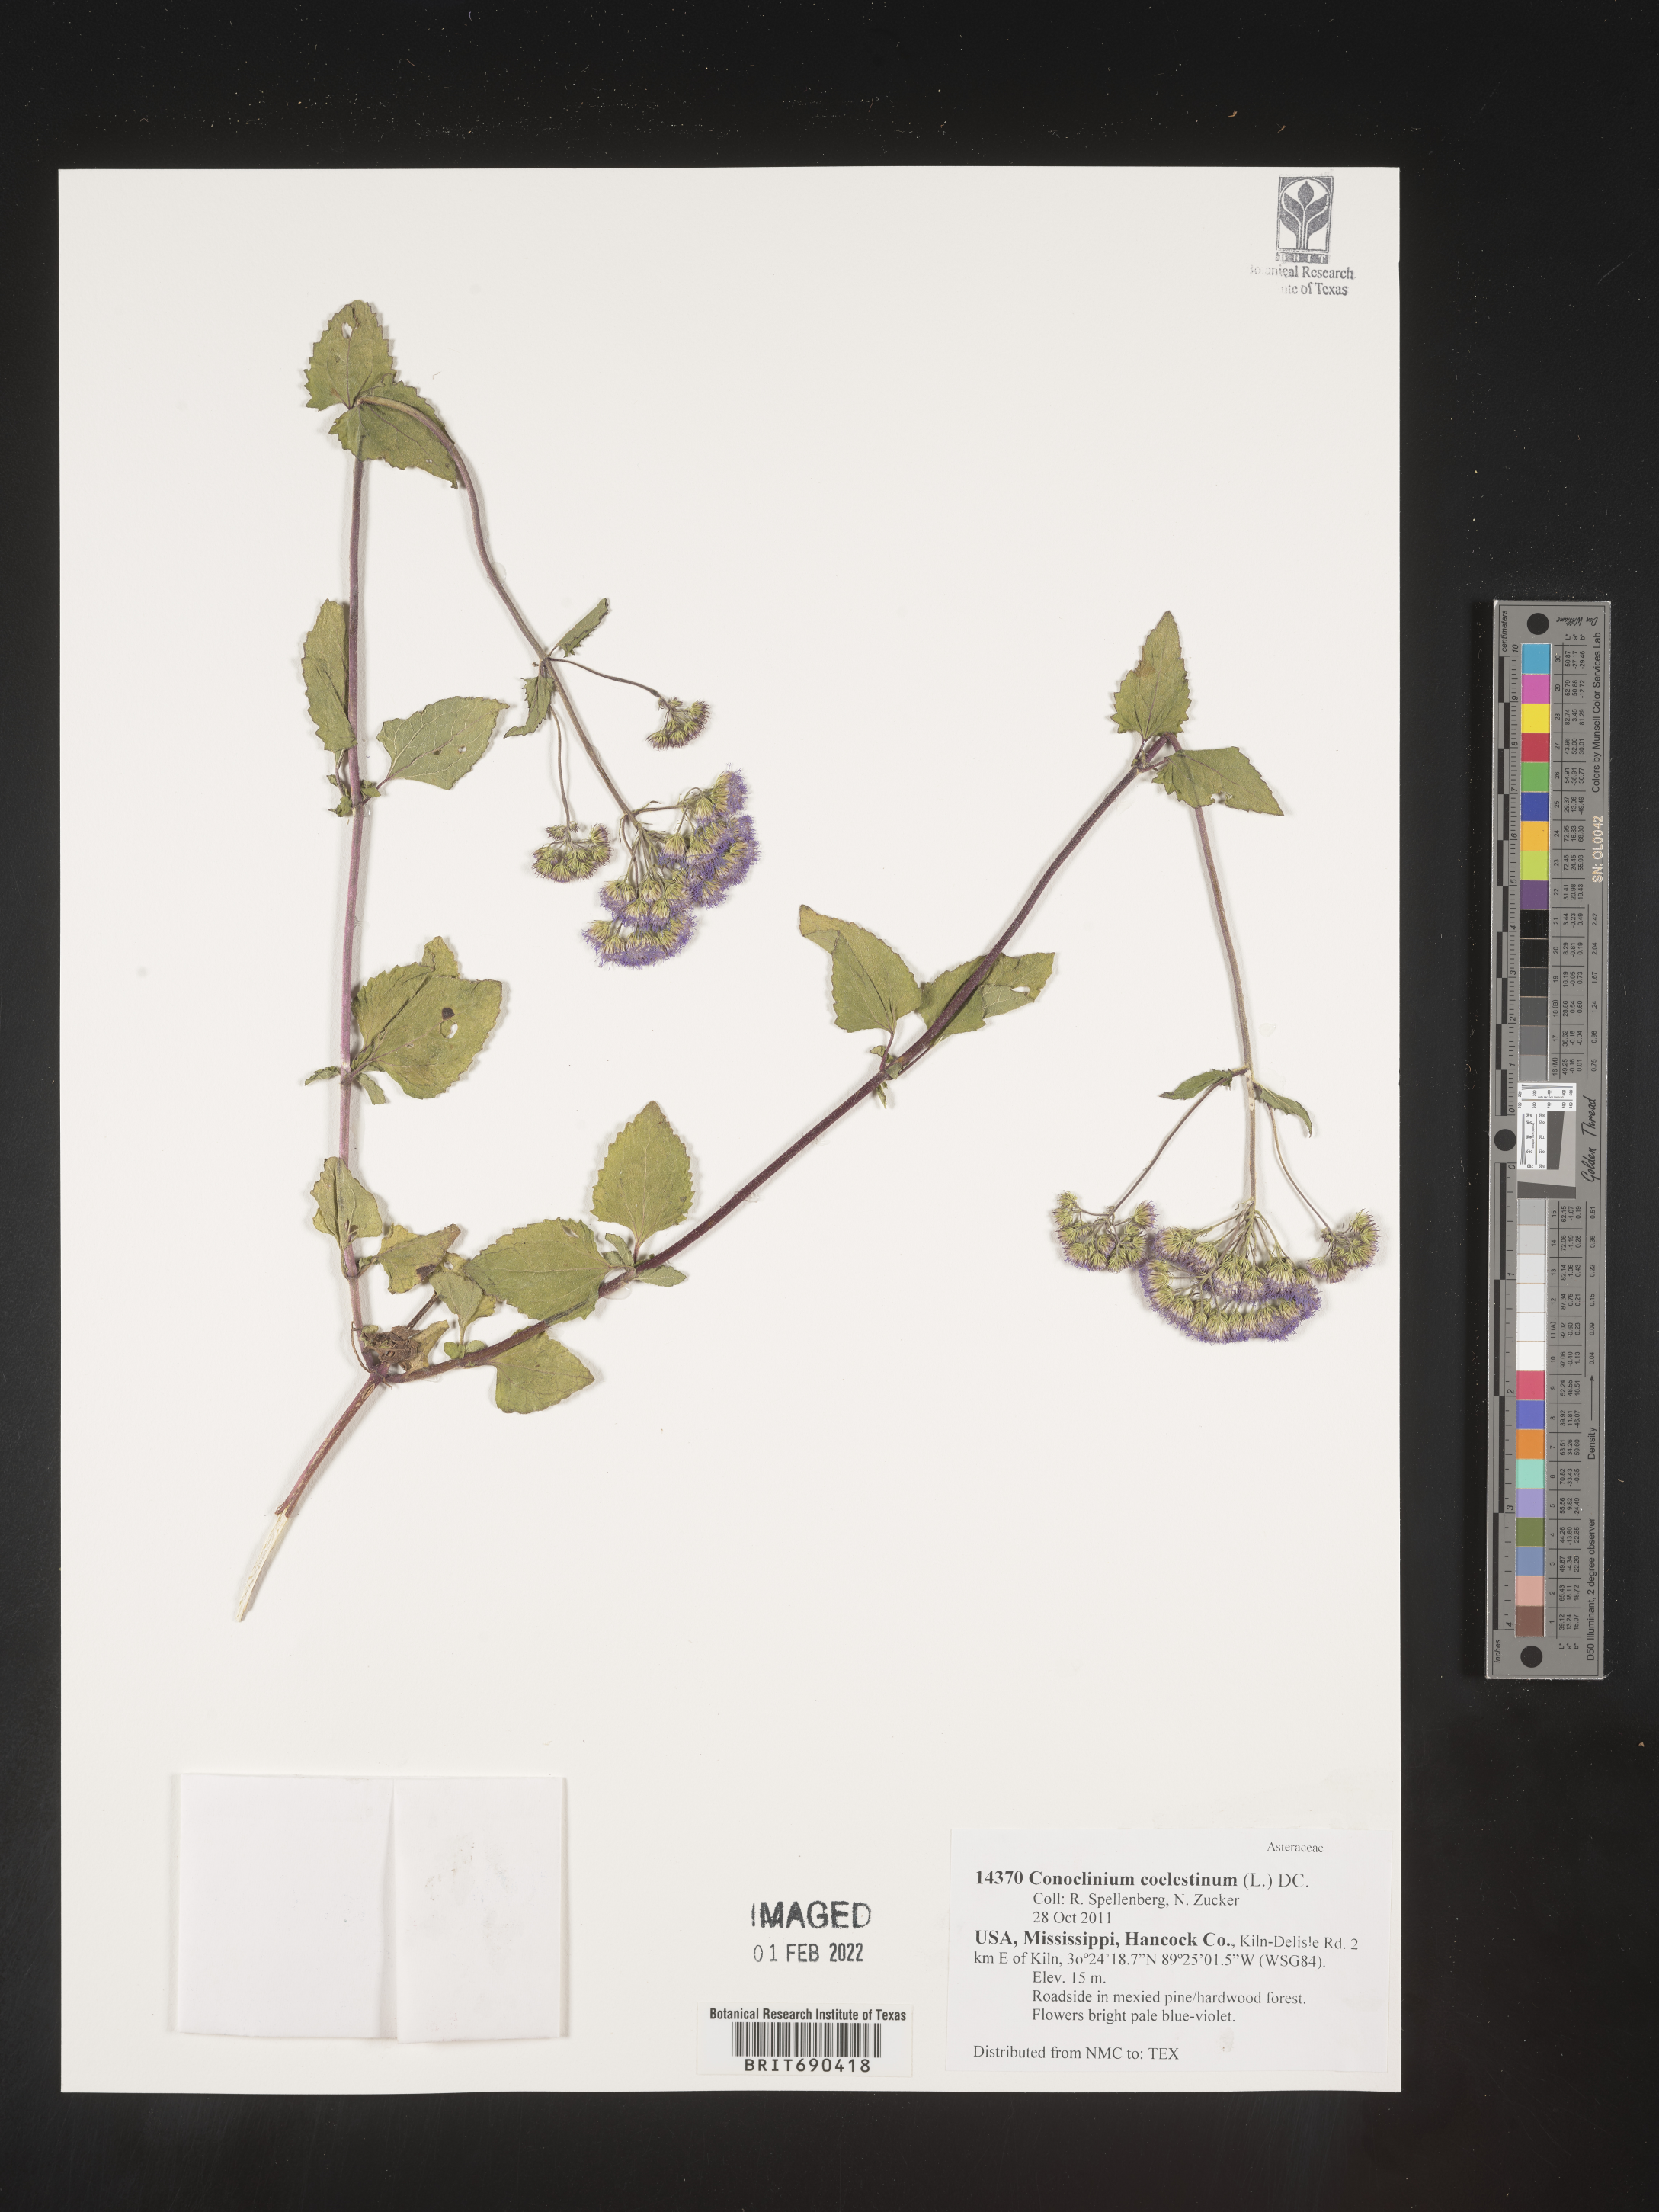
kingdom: Plantae
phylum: Tracheophyta
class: Magnoliopsida
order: Asterales
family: Asteraceae
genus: Conoclinium
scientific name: Conoclinium coelestinum
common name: Blue mistflower
